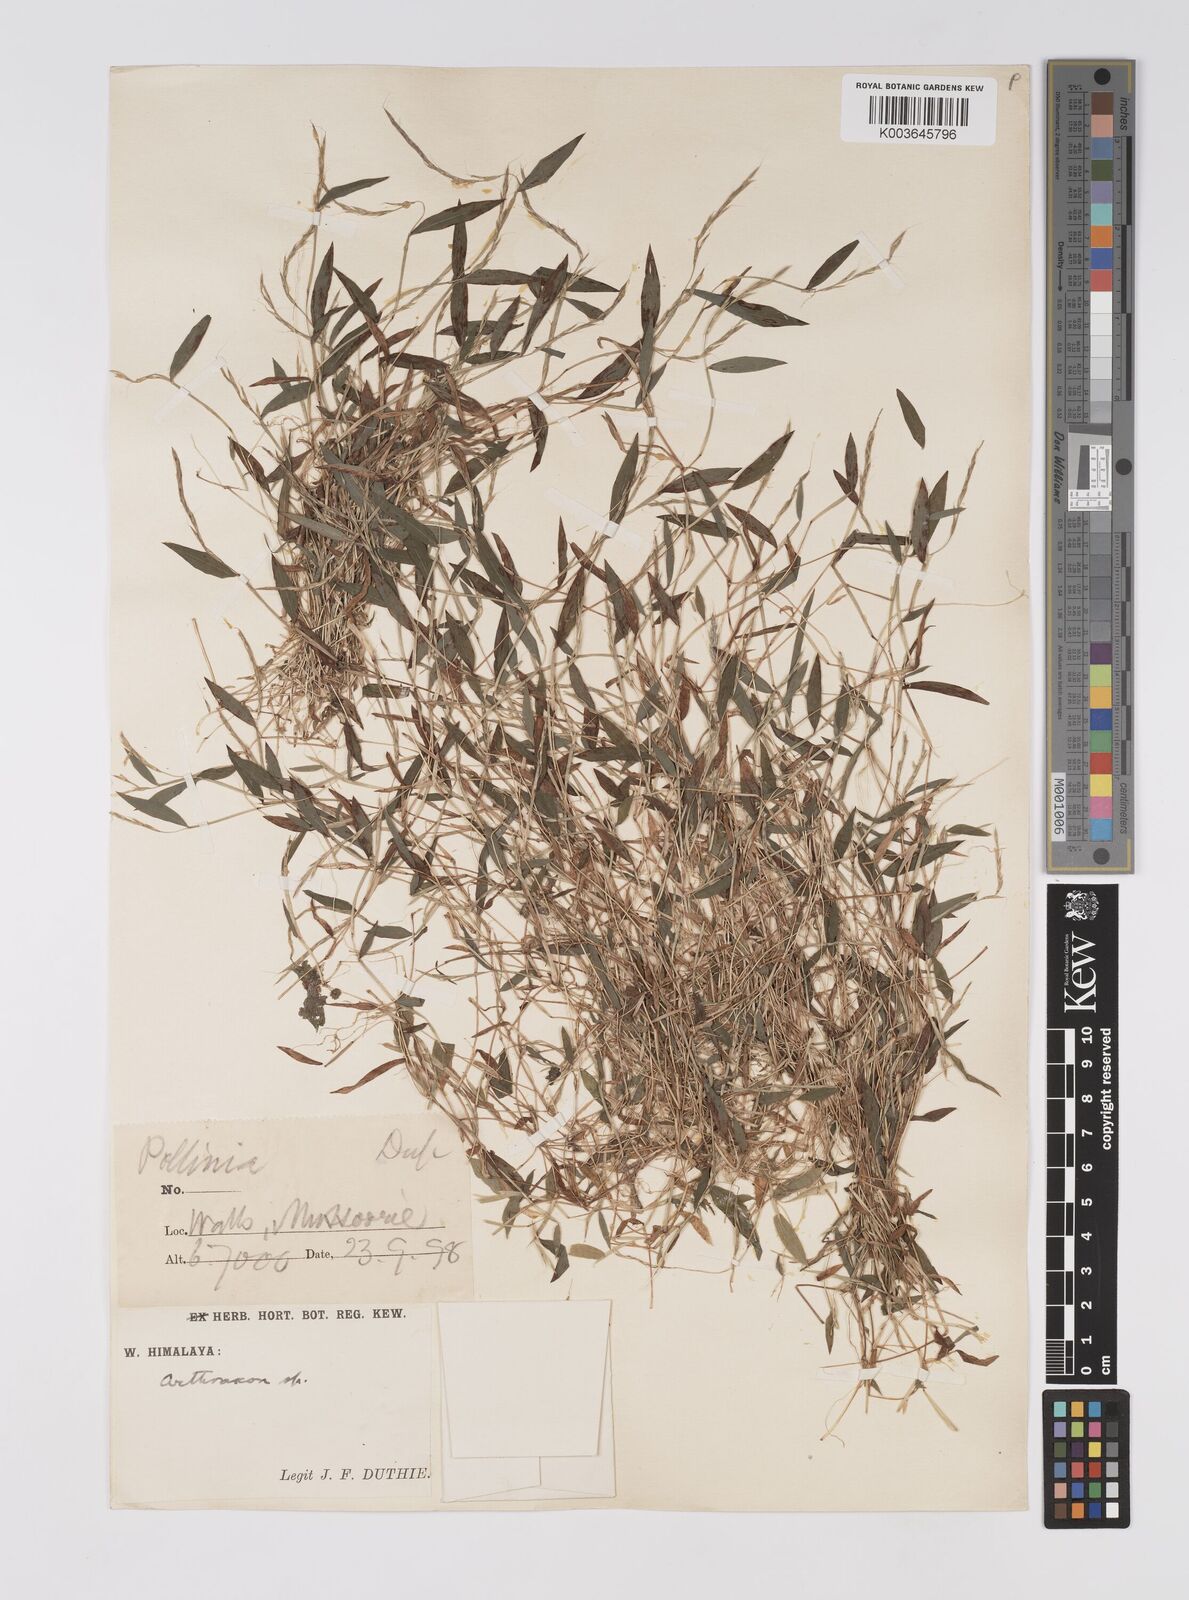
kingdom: Plantae
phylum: Tracheophyta
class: Liliopsida
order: Poales
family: Poaceae
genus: Microstegium
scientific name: Microstegium falconeri
